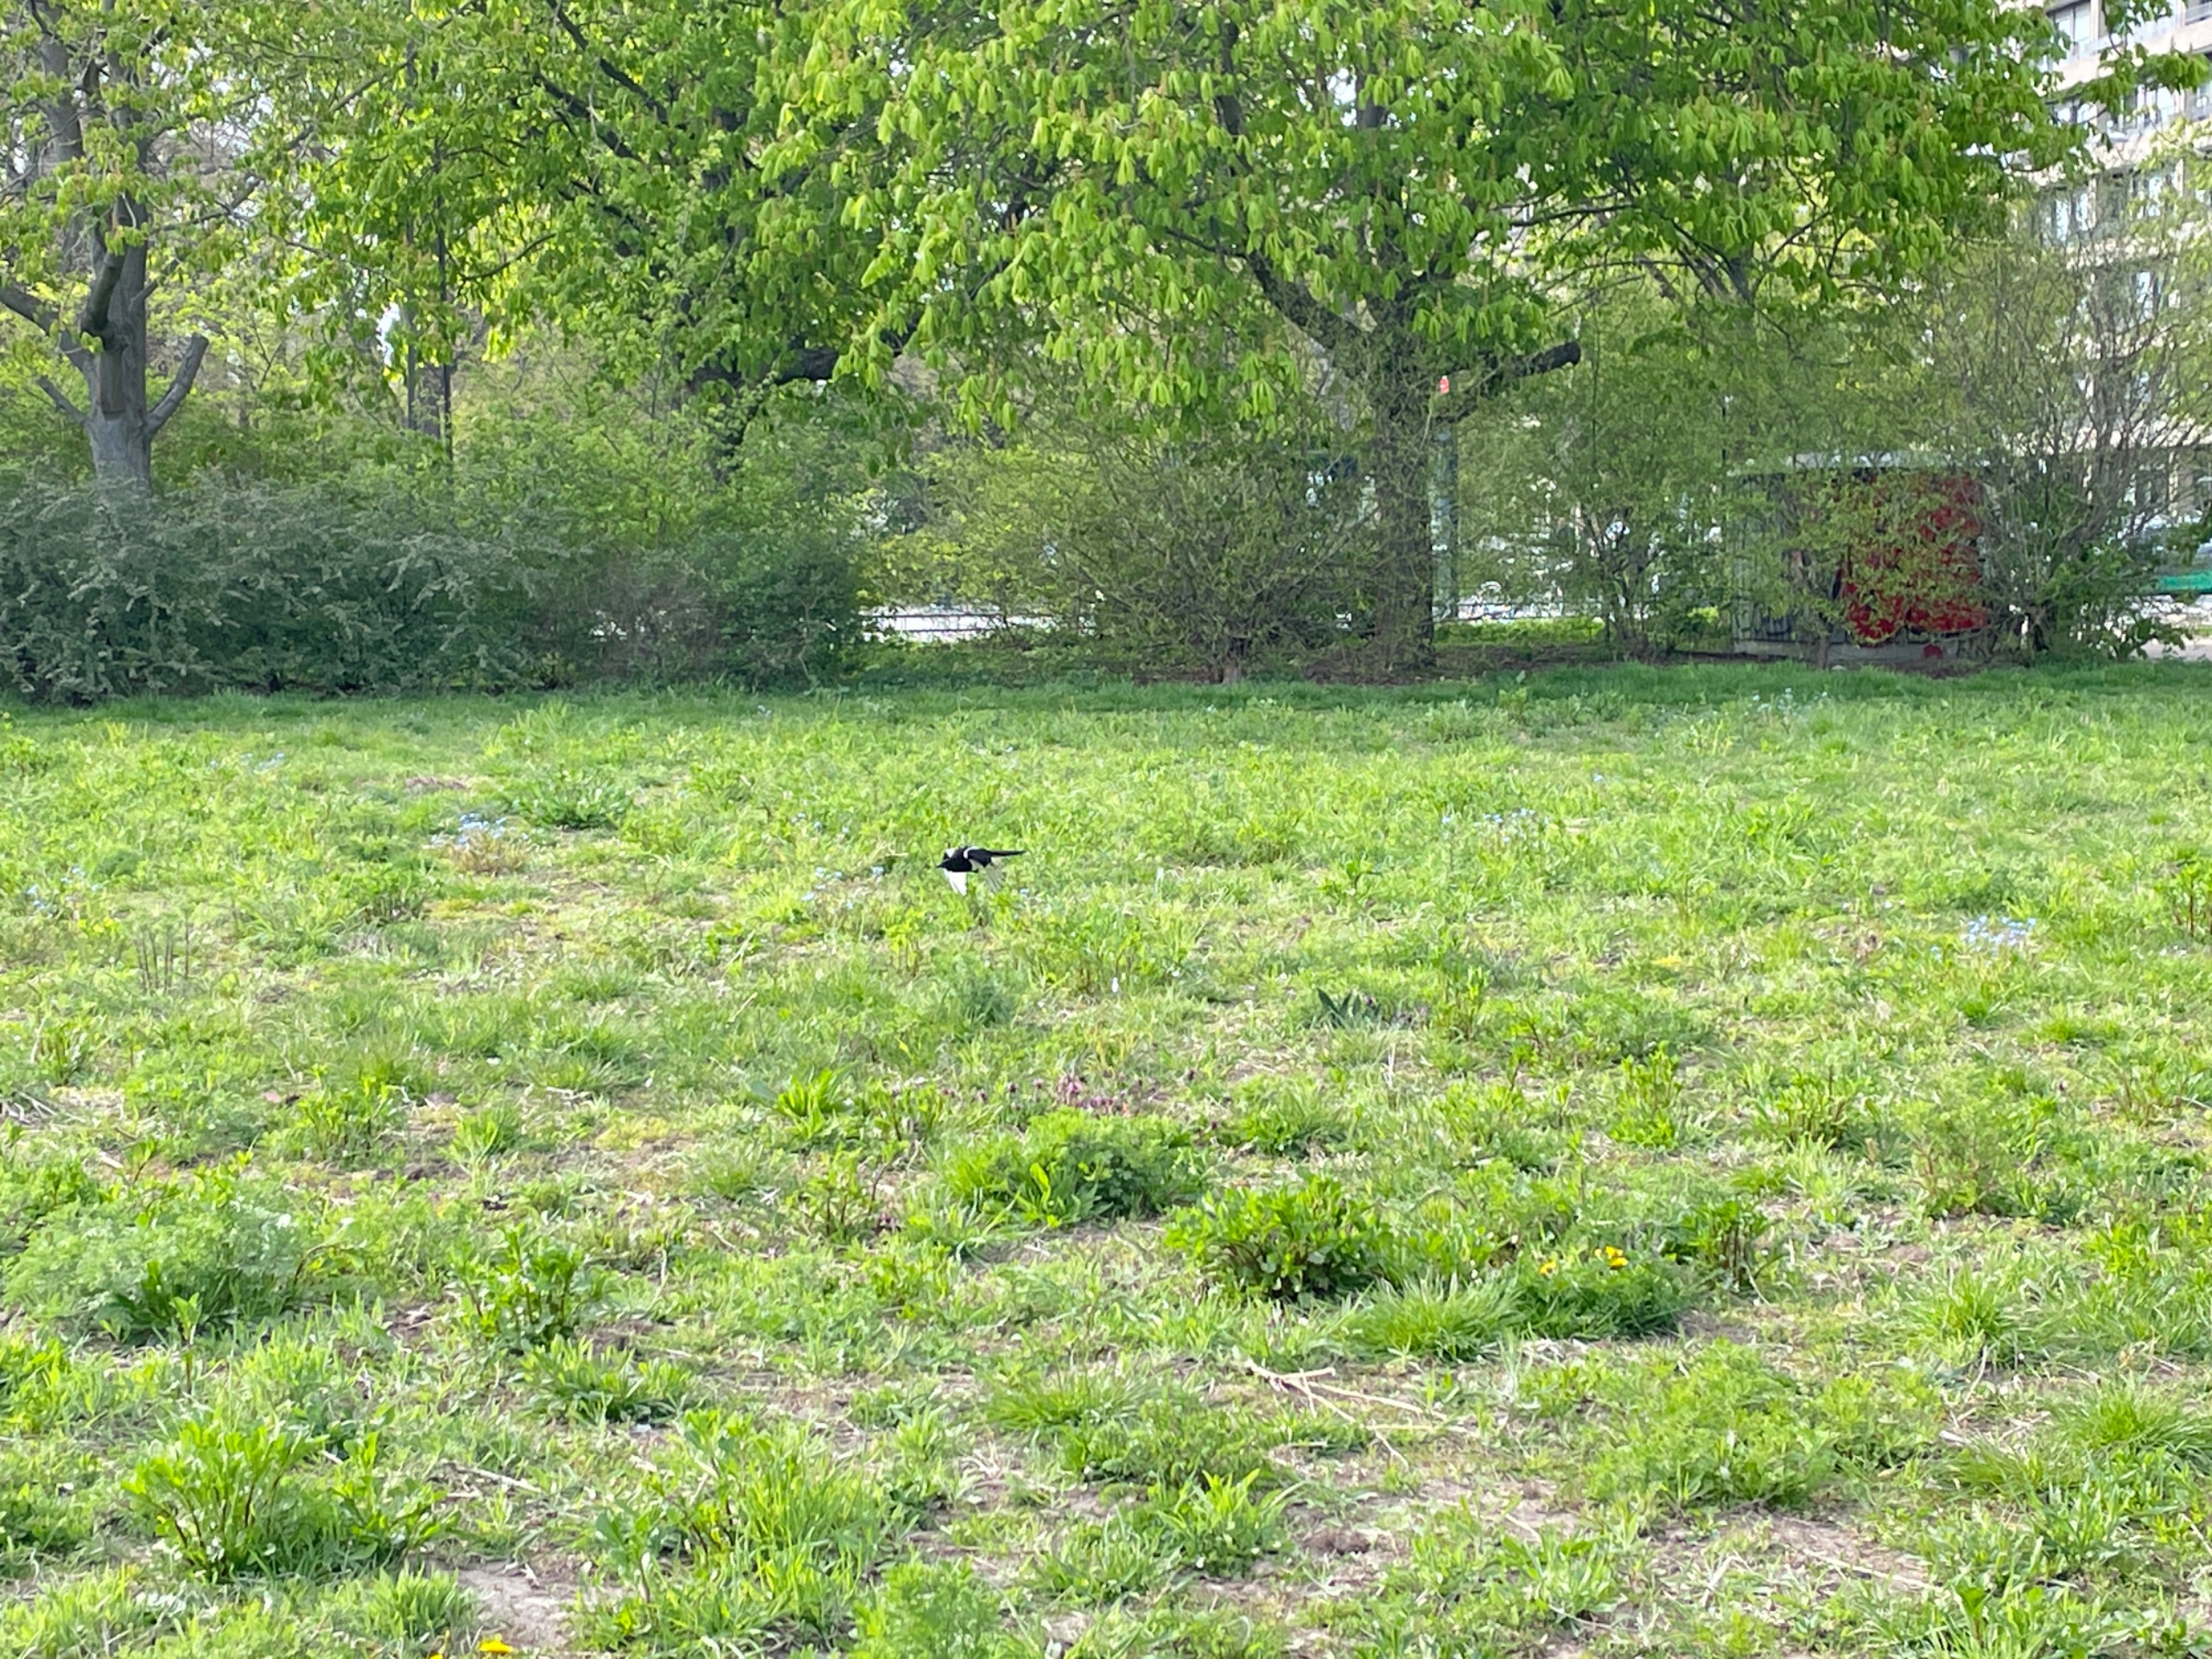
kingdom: Animalia
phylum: Chordata
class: Aves
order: Passeriformes
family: Corvidae
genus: Pica
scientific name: Pica pica
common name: Husskade
